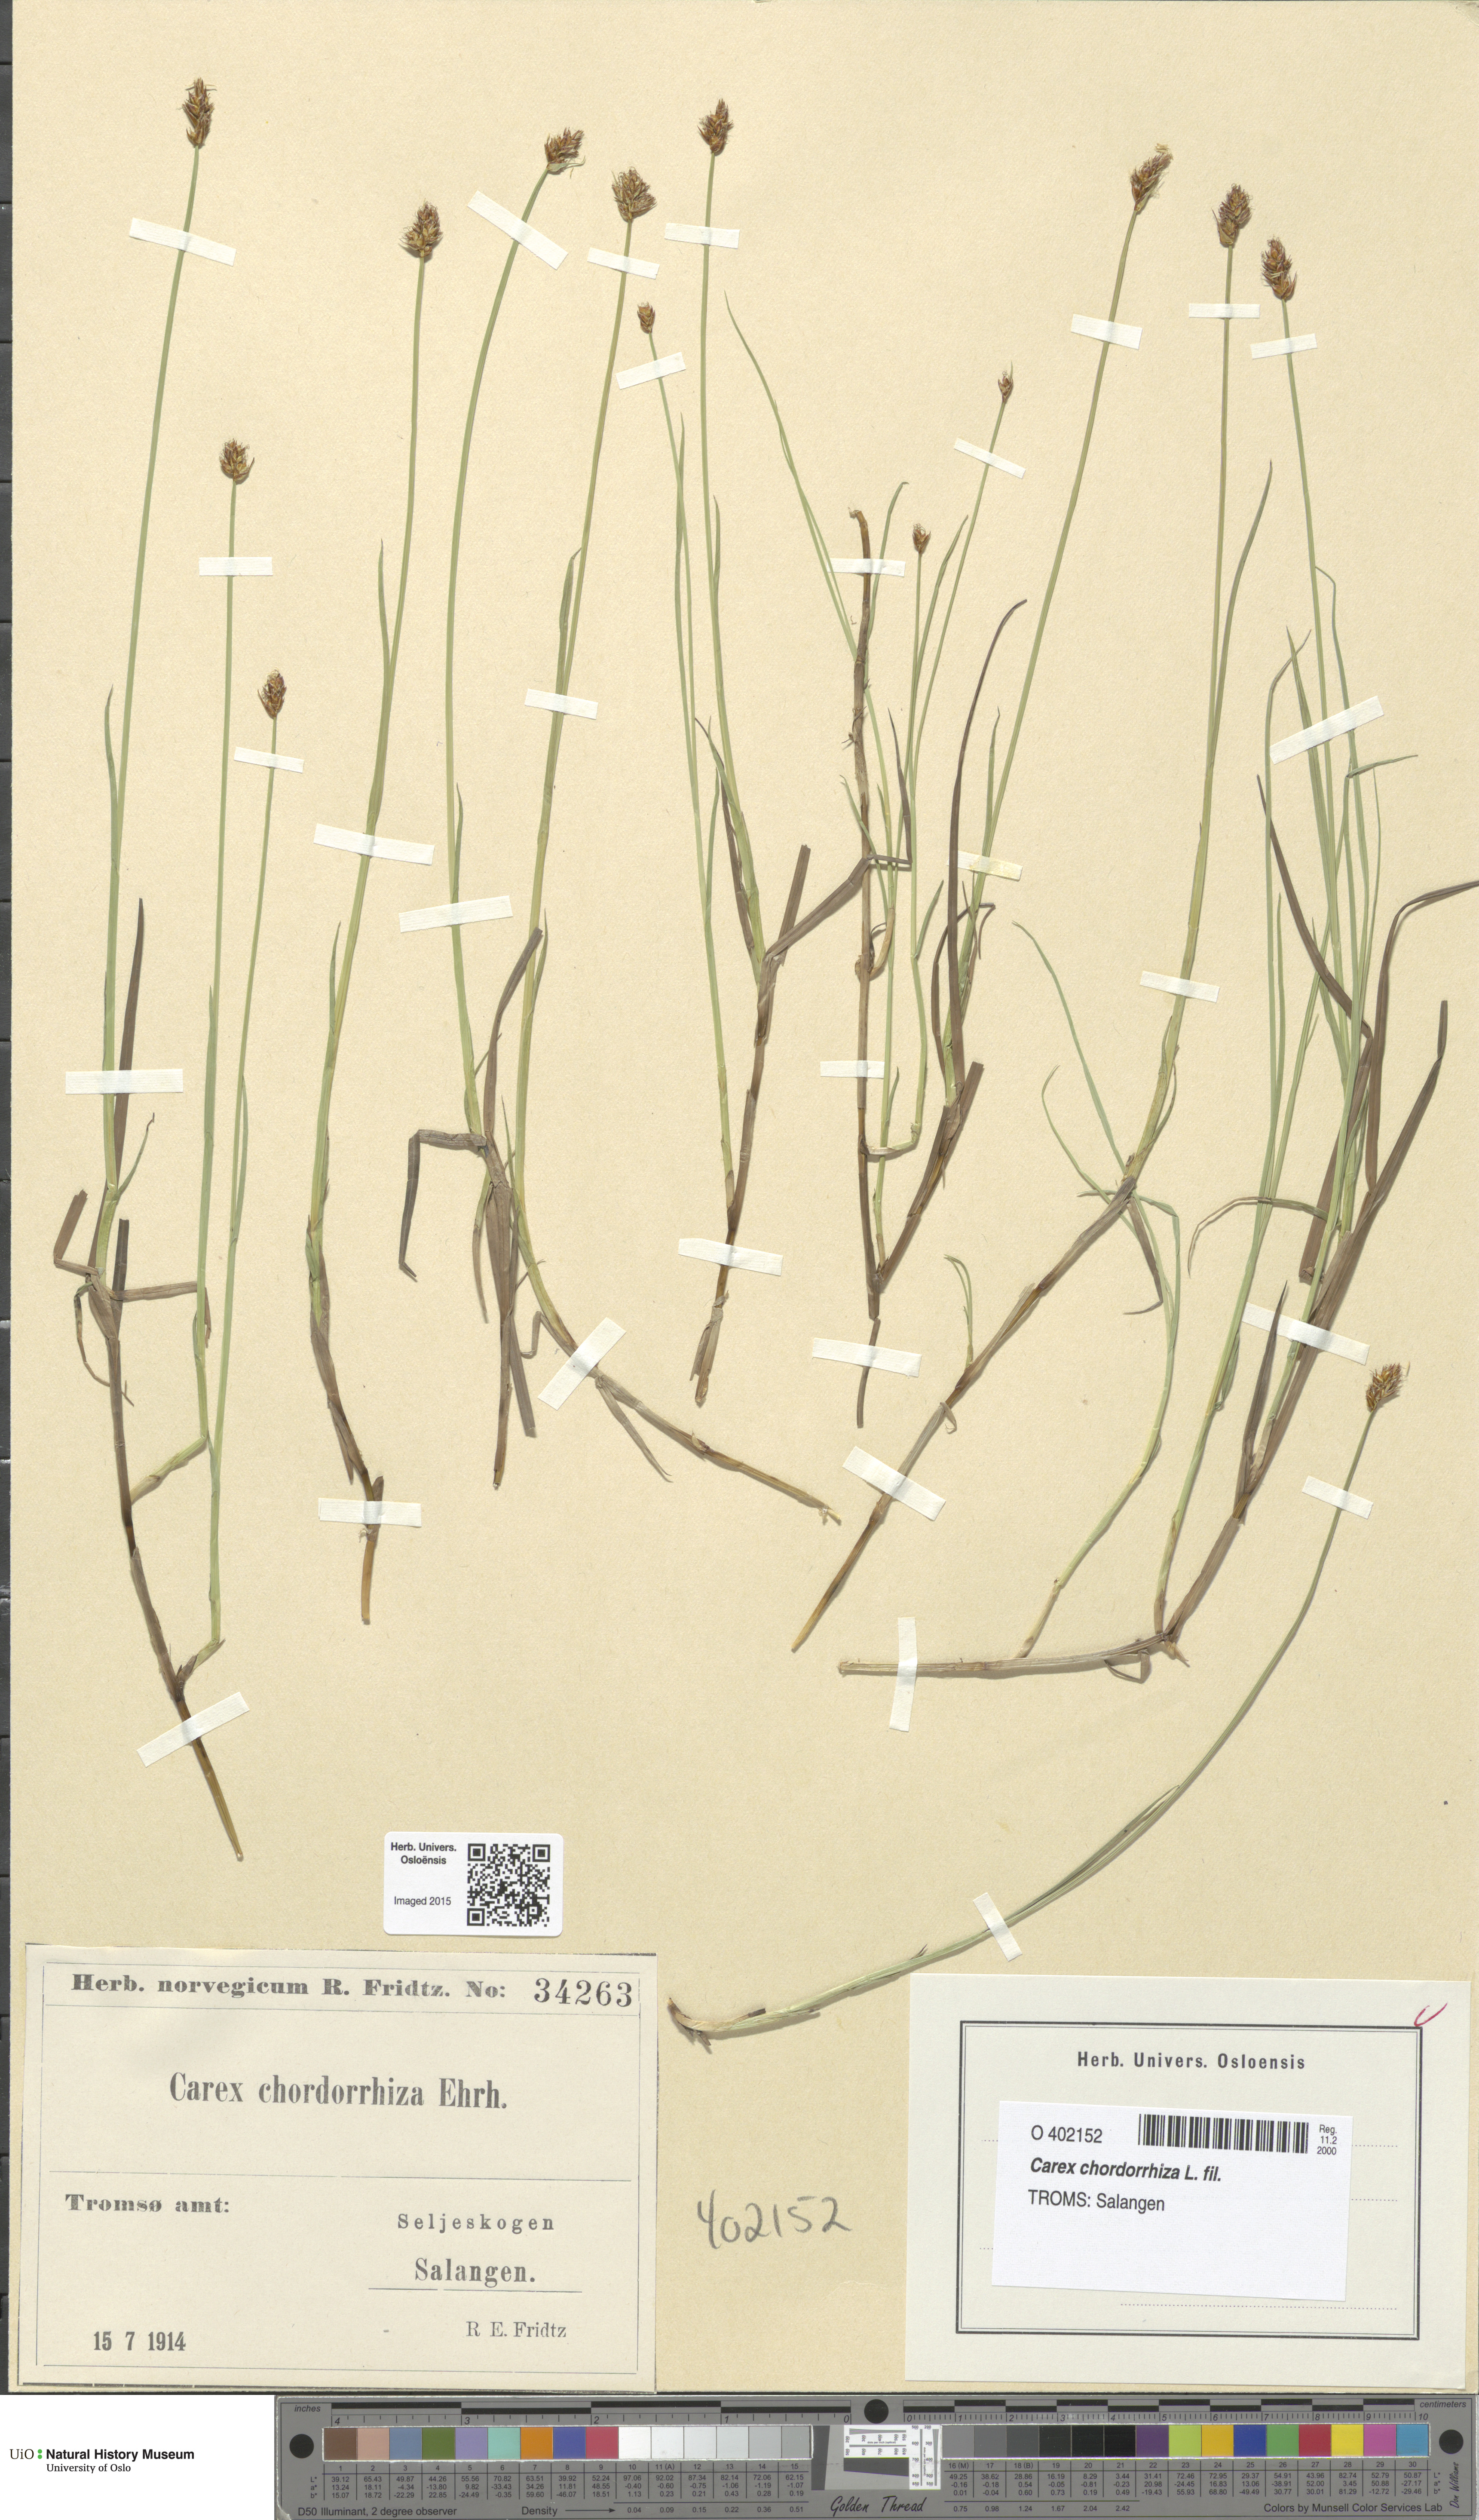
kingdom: Plantae
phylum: Tracheophyta
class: Liliopsida
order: Poales
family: Cyperaceae
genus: Carex
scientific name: Carex chordorrhiza
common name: String sedge
